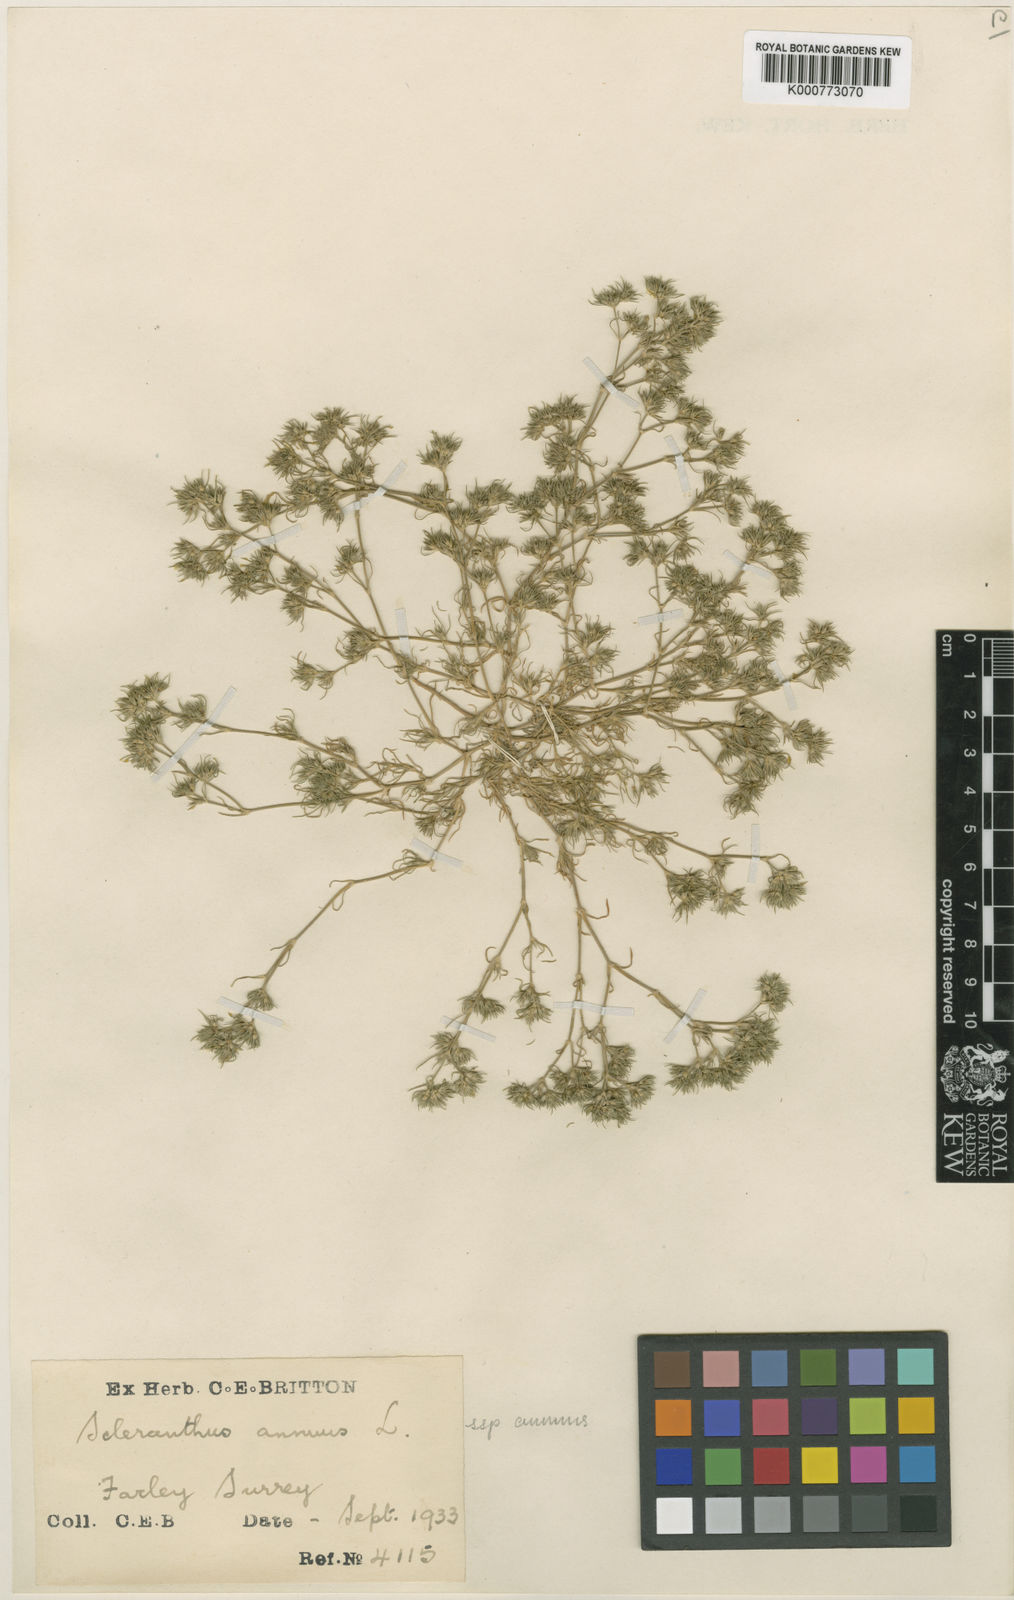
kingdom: Plantae
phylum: Tracheophyta
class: Magnoliopsida
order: Caryophyllales
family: Caryophyllaceae
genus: Scleranthus
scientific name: Scleranthus annuus
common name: Annual knawel
